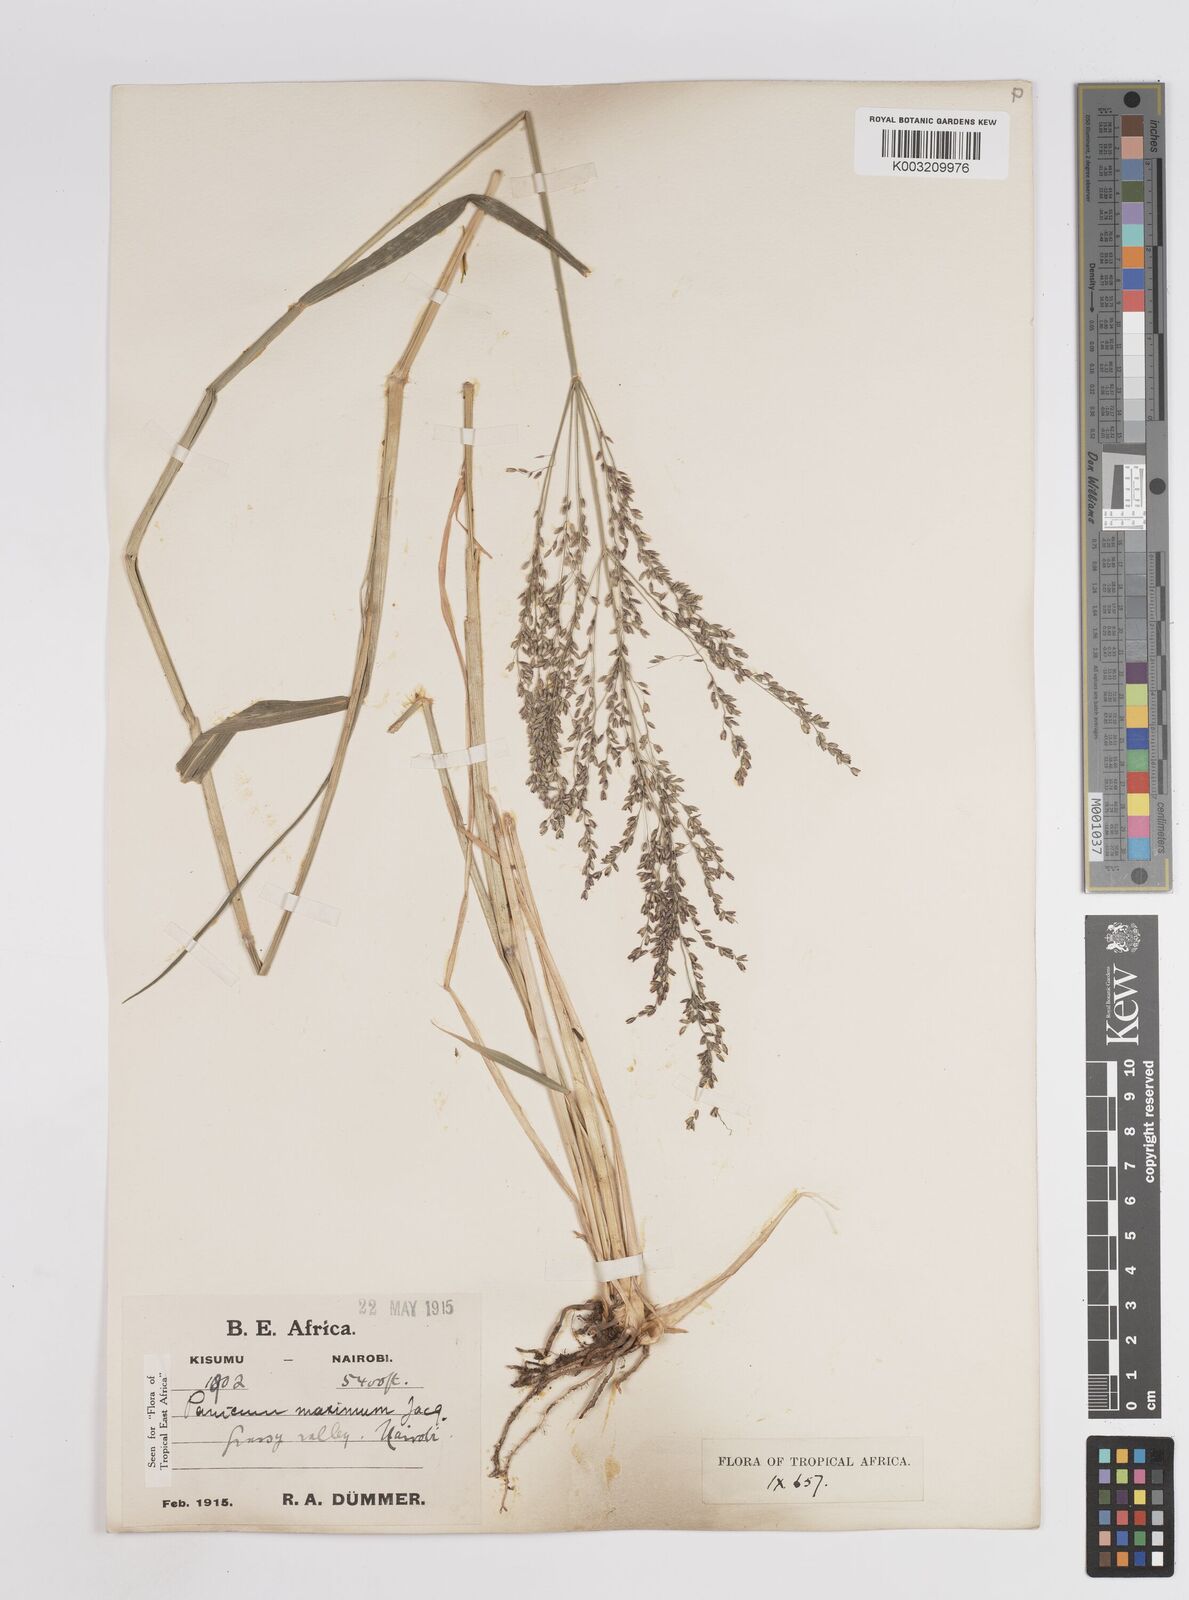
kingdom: Plantae
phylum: Tracheophyta
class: Liliopsida
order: Poales
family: Poaceae
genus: Megathyrsus
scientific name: Megathyrsus maximus
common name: Guineagrass
